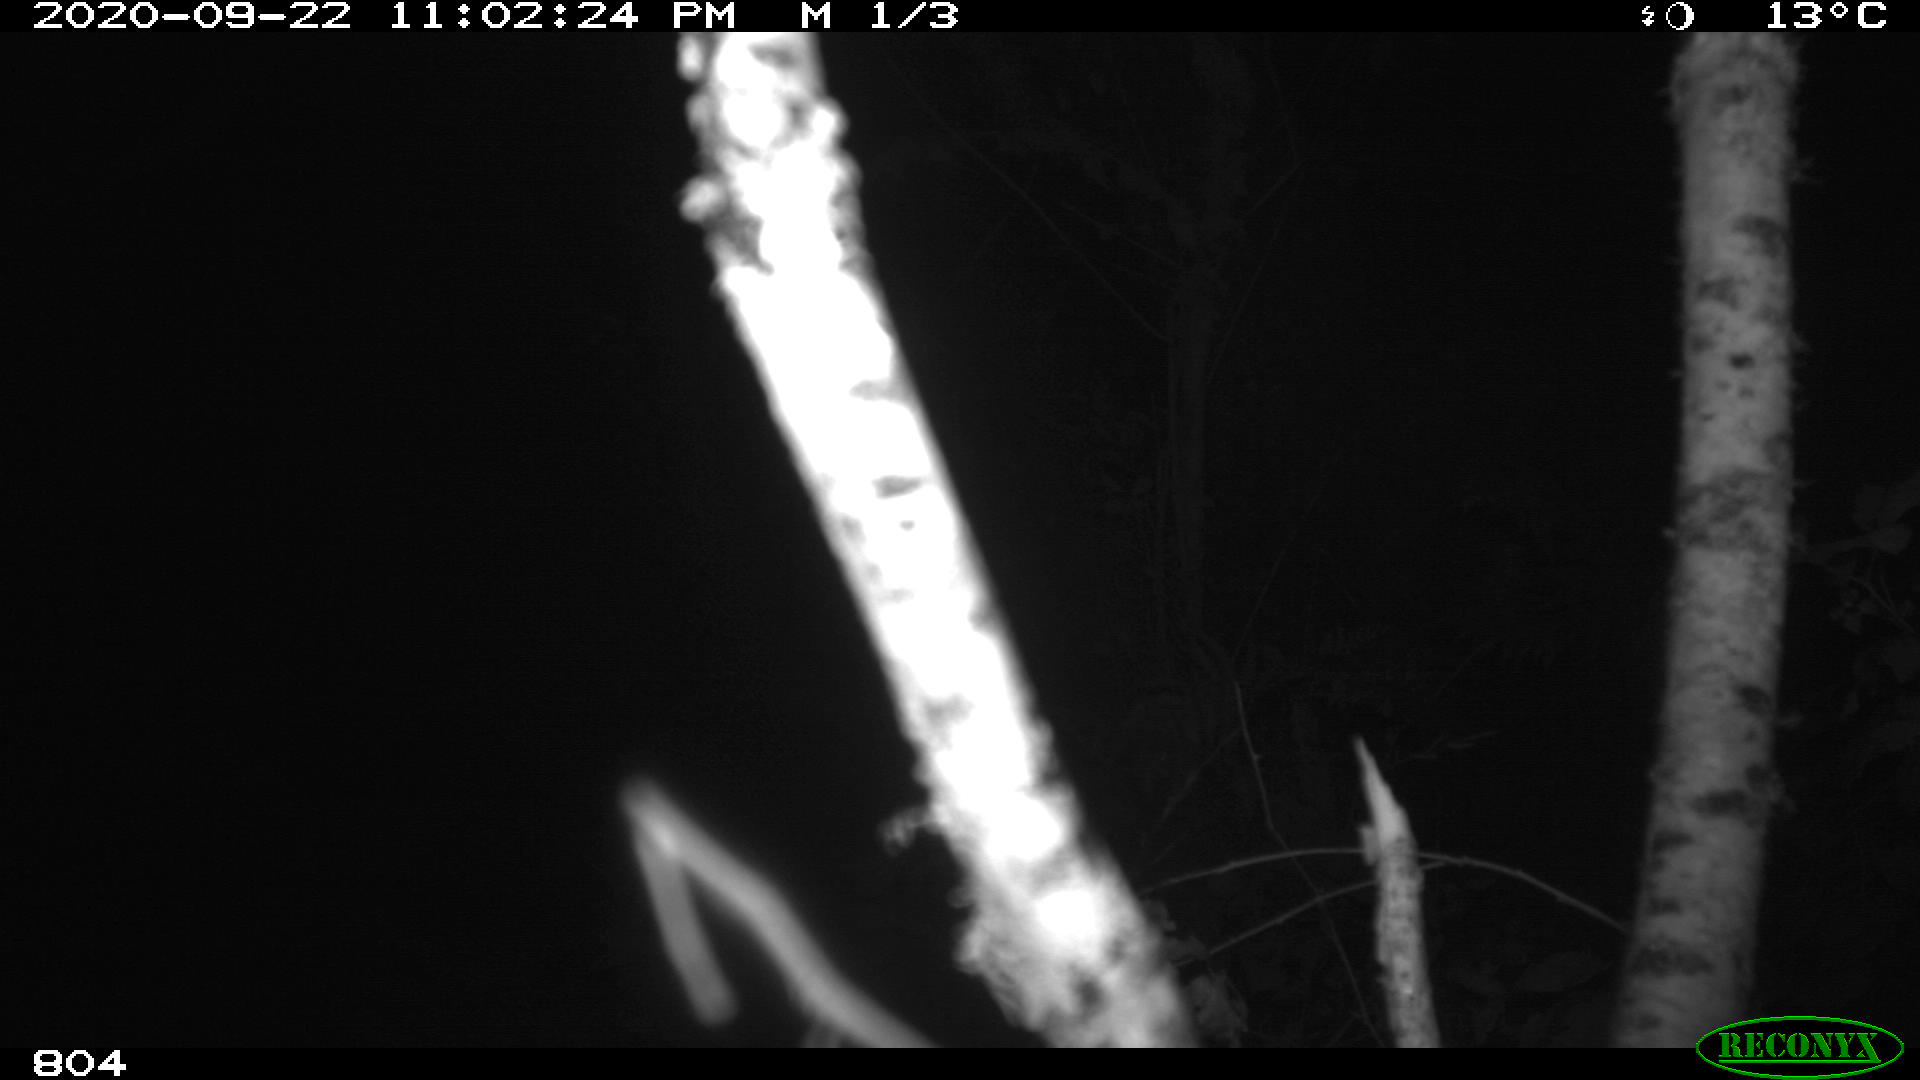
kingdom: Animalia
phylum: Chordata
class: Mammalia
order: Artiodactyla
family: Suidae
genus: Sus
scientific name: Sus scrofa
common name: Wild boar
